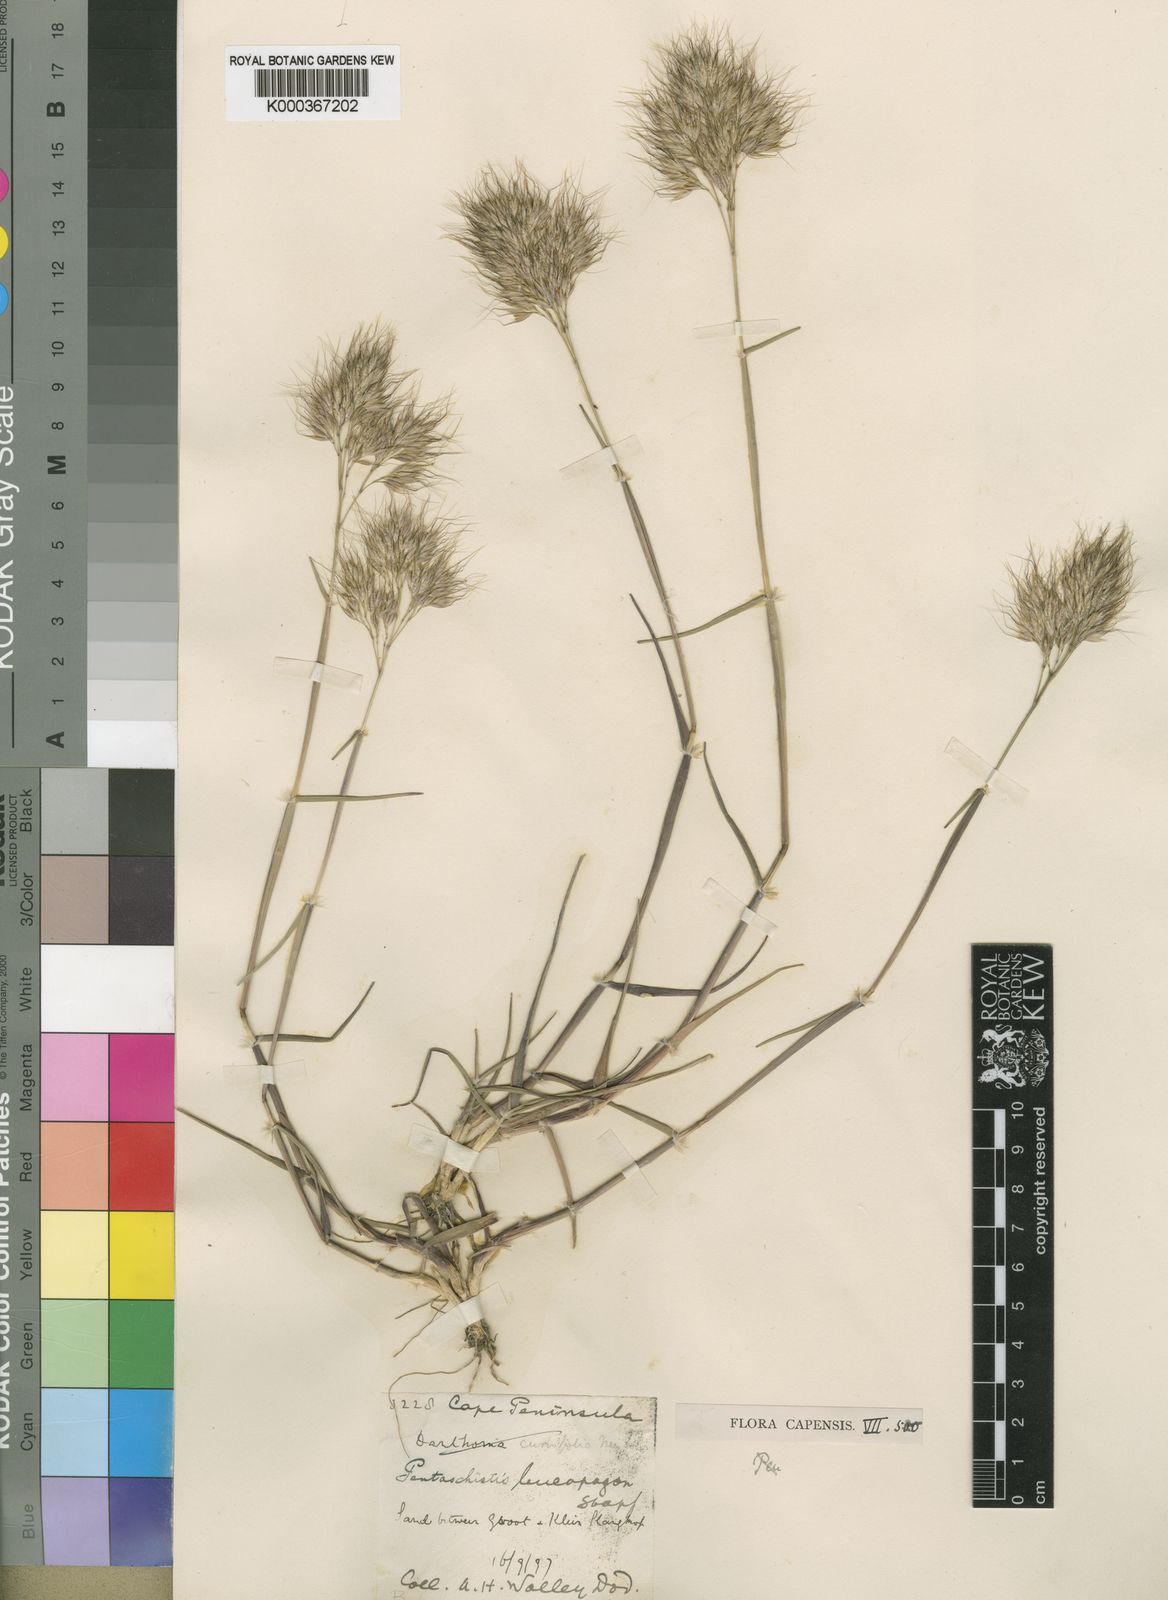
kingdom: Plantae
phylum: Tracheophyta
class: Liliopsida
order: Poales
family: Poaceae
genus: Pentameris
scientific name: Pentameris barbata
